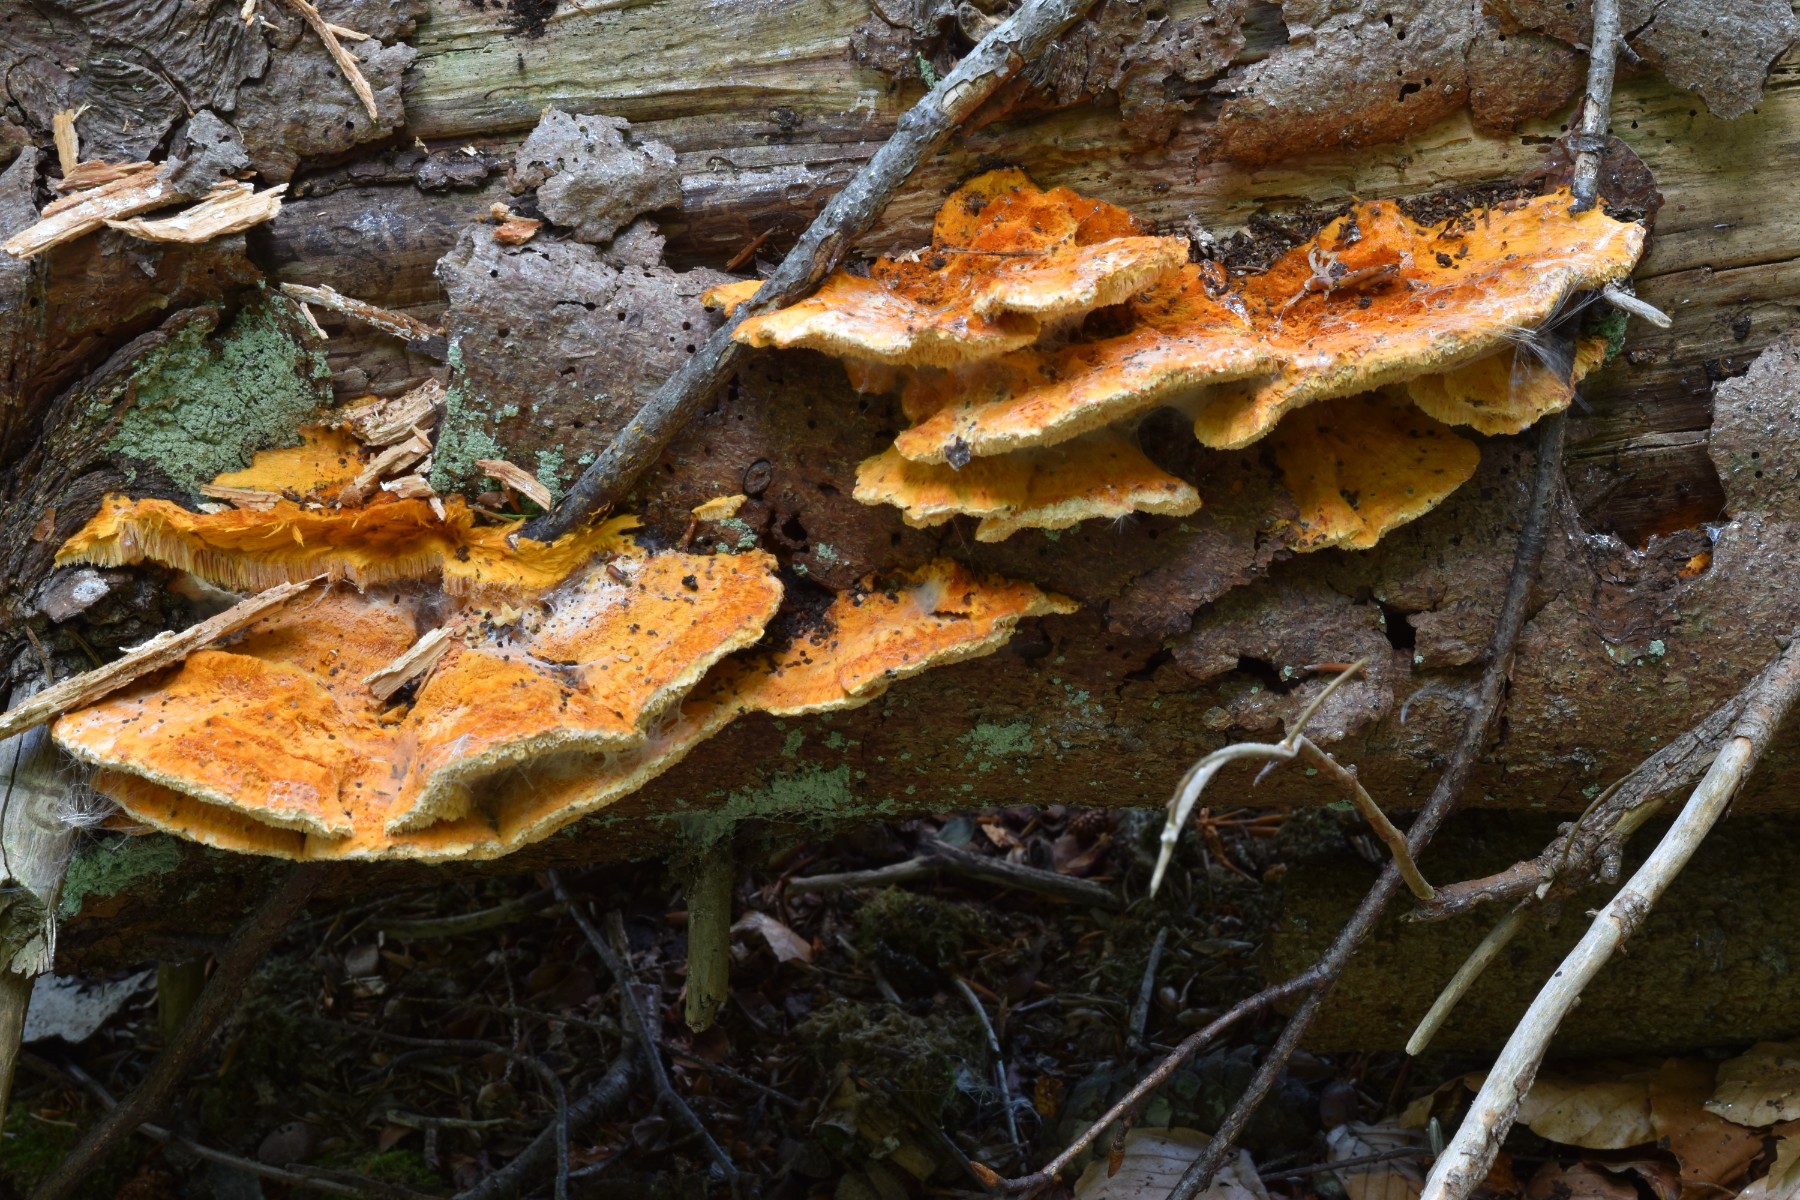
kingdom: Fungi
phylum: Basidiomycota
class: Agaricomycetes
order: Polyporales
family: Pycnoporellaceae
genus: Pycnoporellus
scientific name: Pycnoporellus fulgens
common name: flammeporesvamp
